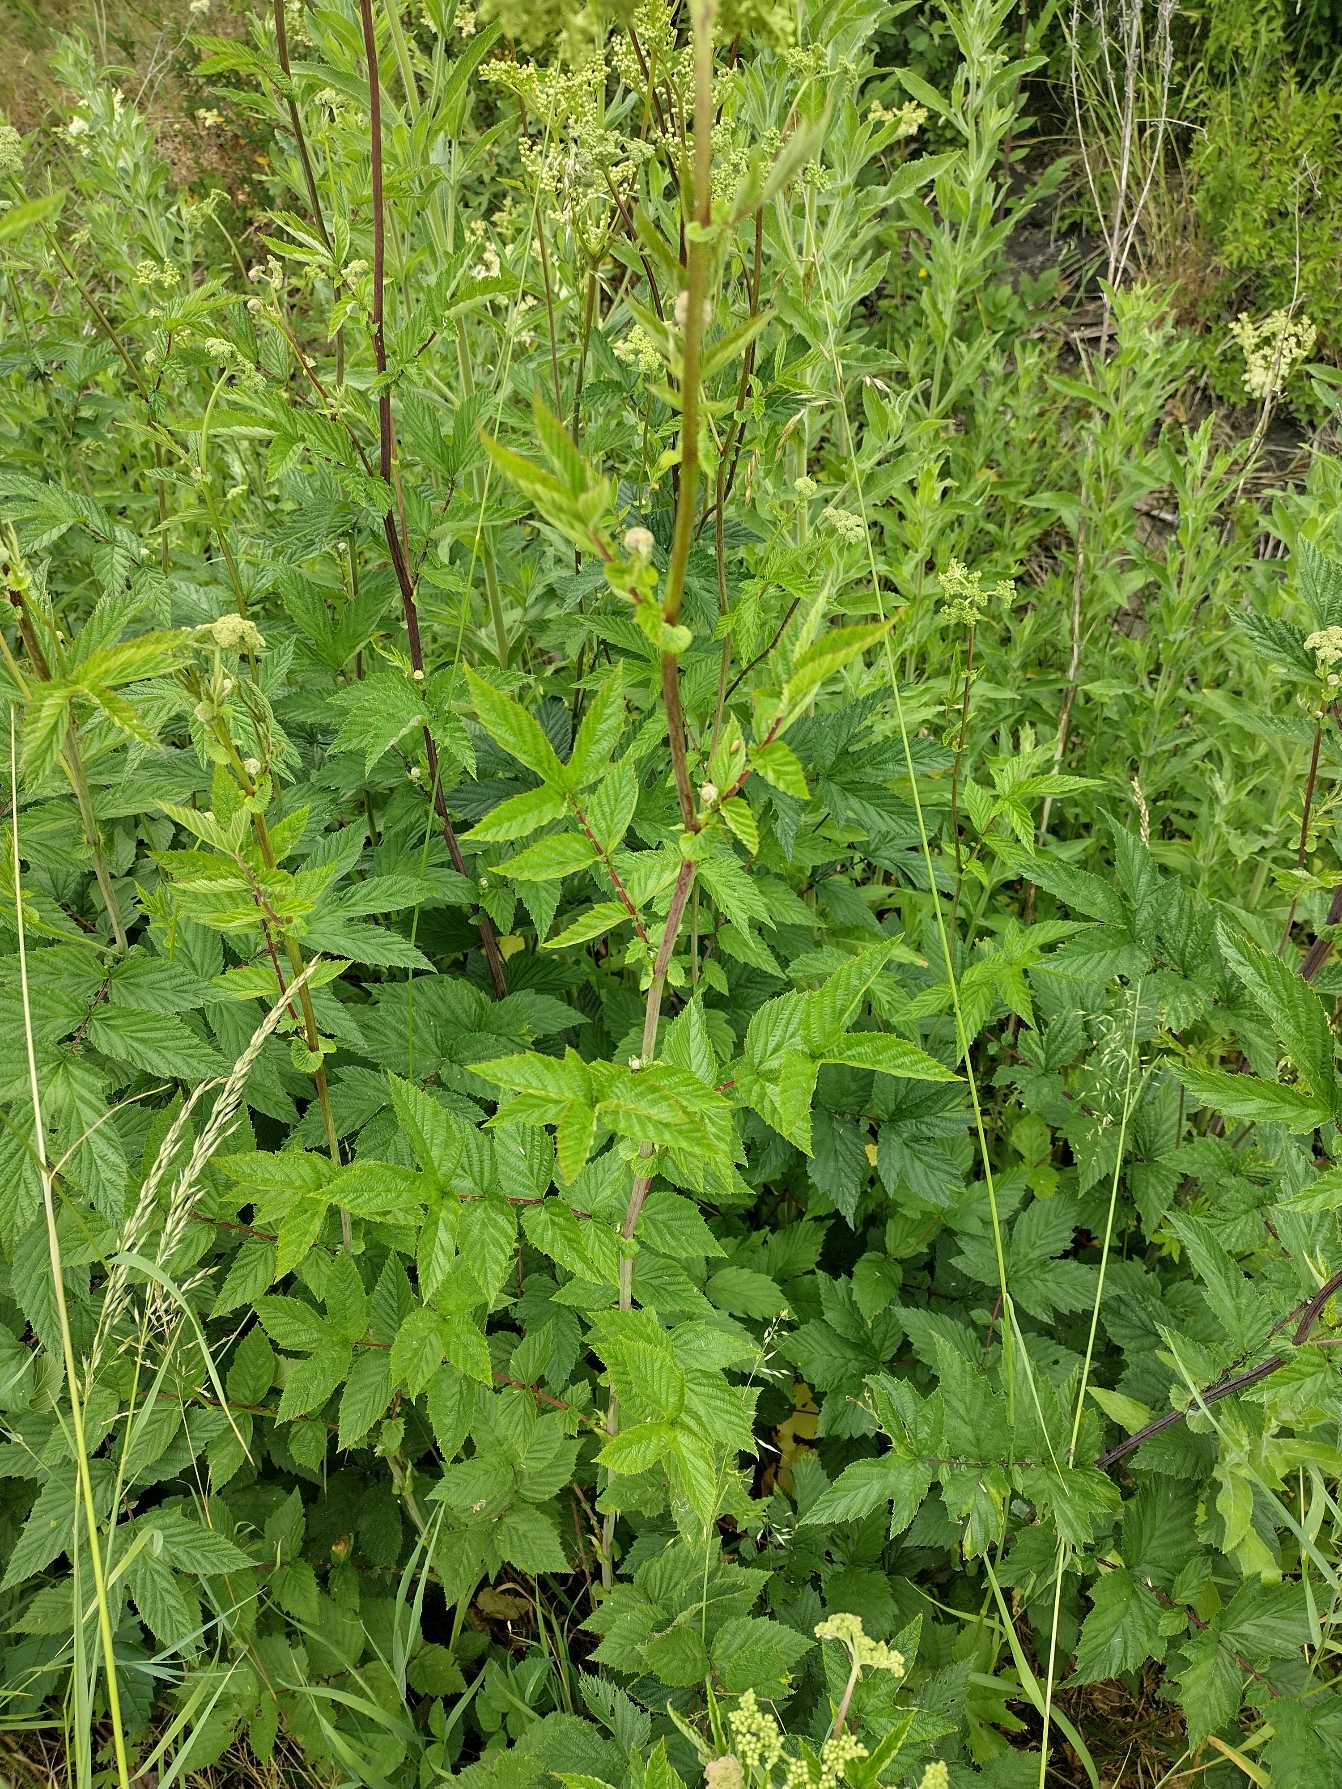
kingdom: Plantae
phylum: Tracheophyta
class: Magnoliopsida
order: Rosales
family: Rosaceae
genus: Filipendula
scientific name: Filipendula ulmaria
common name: Almindelig mjødurt
